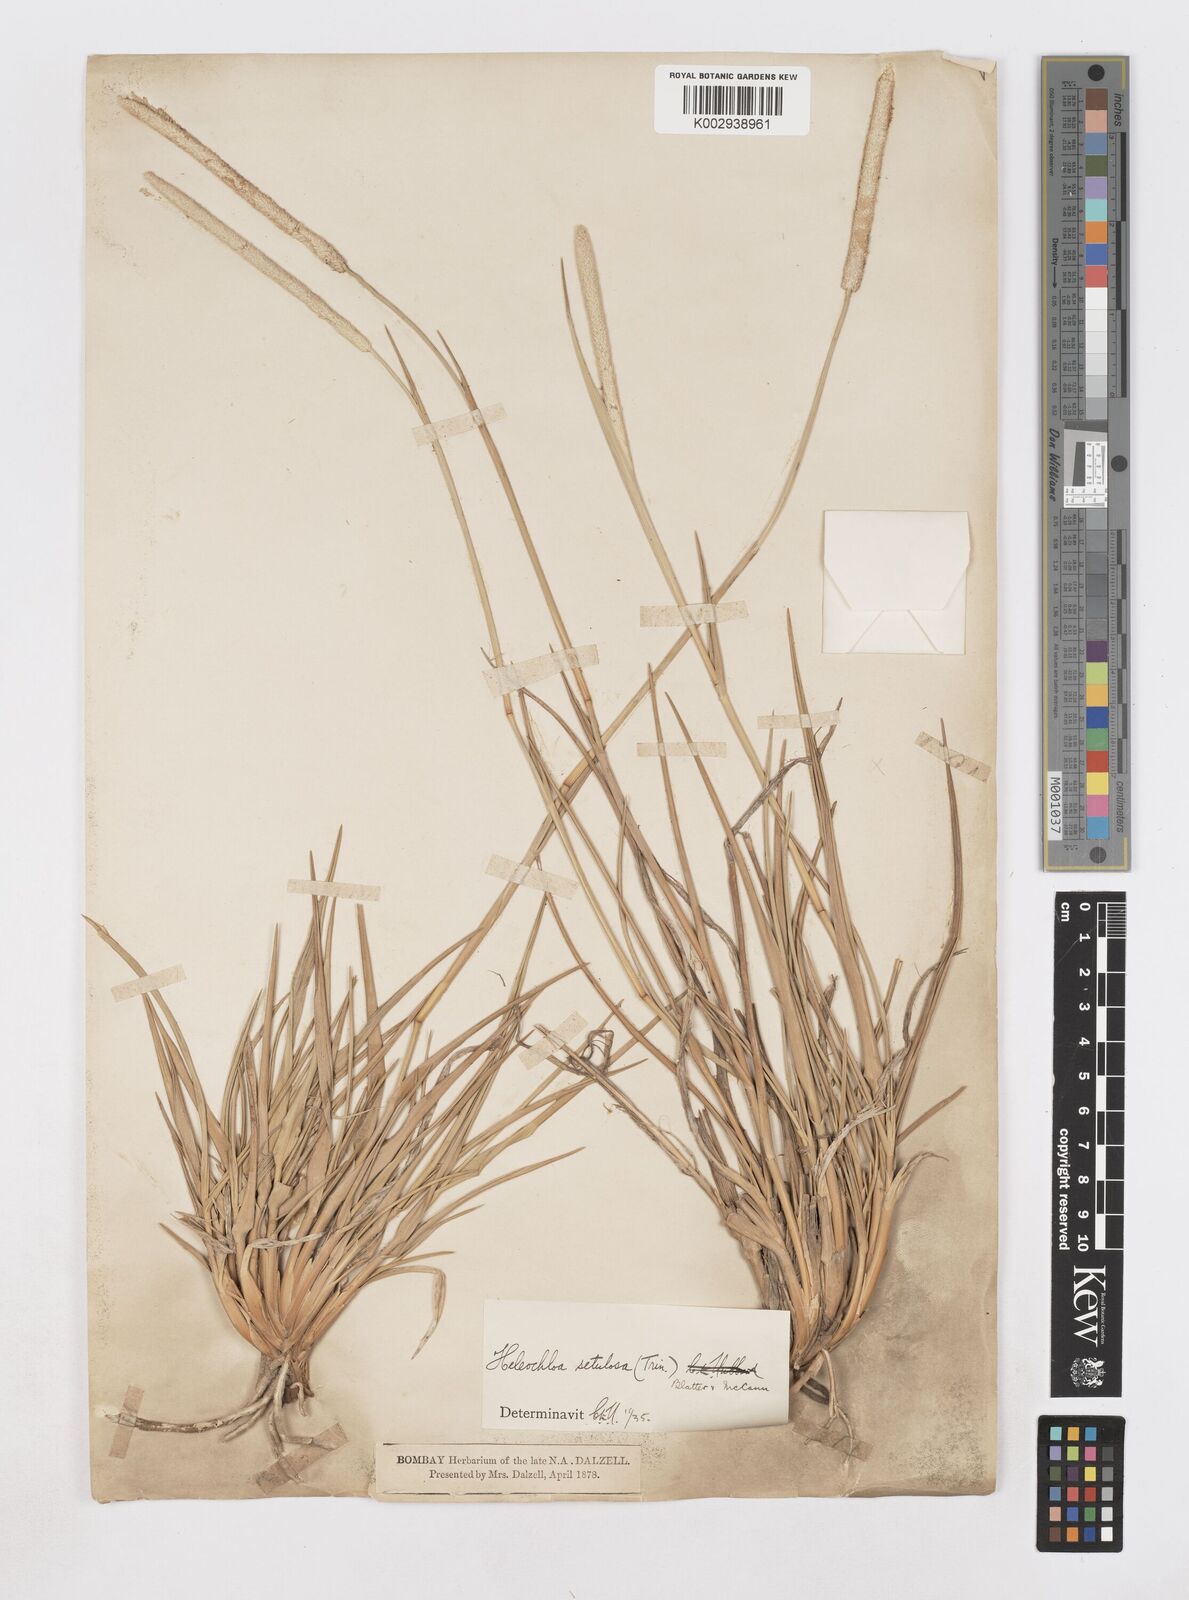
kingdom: Plantae
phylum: Tracheophyta
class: Liliopsida
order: Poales
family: Poaceae
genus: Urochondra
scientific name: Urochondra setulosa
